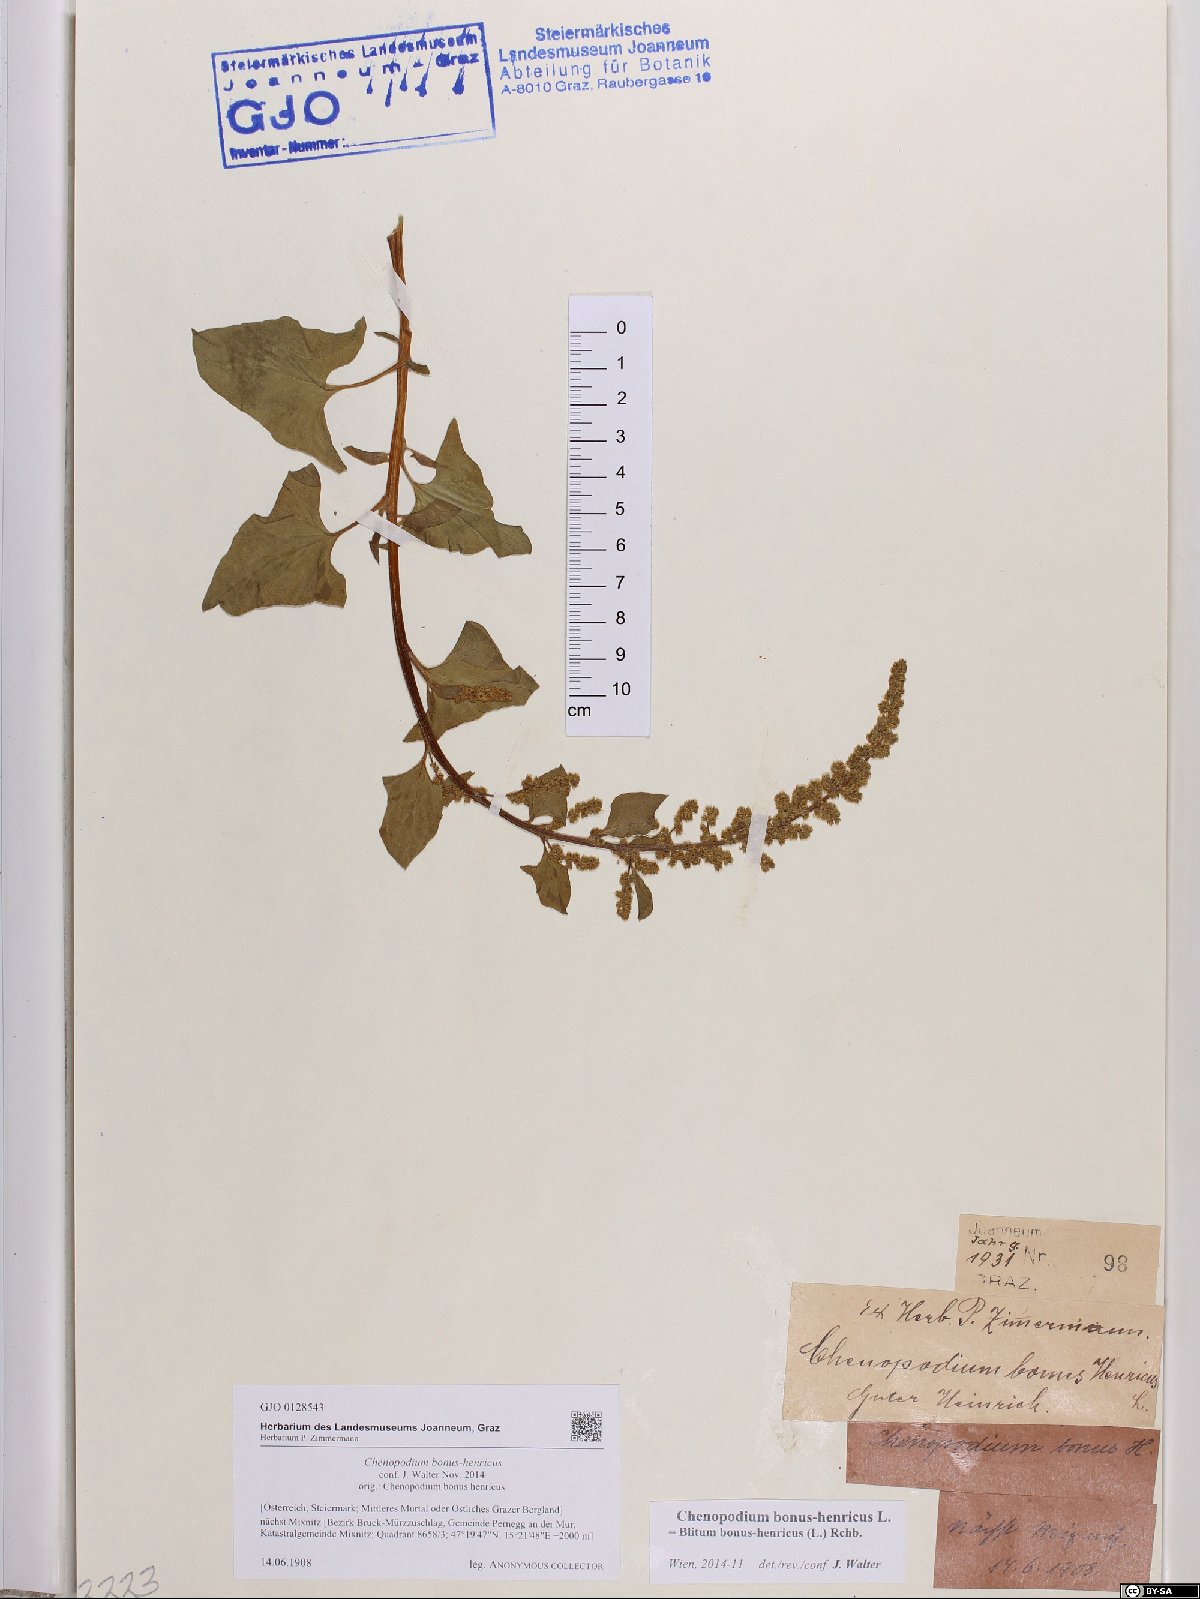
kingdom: Plantae
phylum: Tracheophyta
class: Magnoliopsida
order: Caryophyllales
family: Amaranthaceae
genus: Blitum
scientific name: Blitum bonus-henricus
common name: Good king henry
